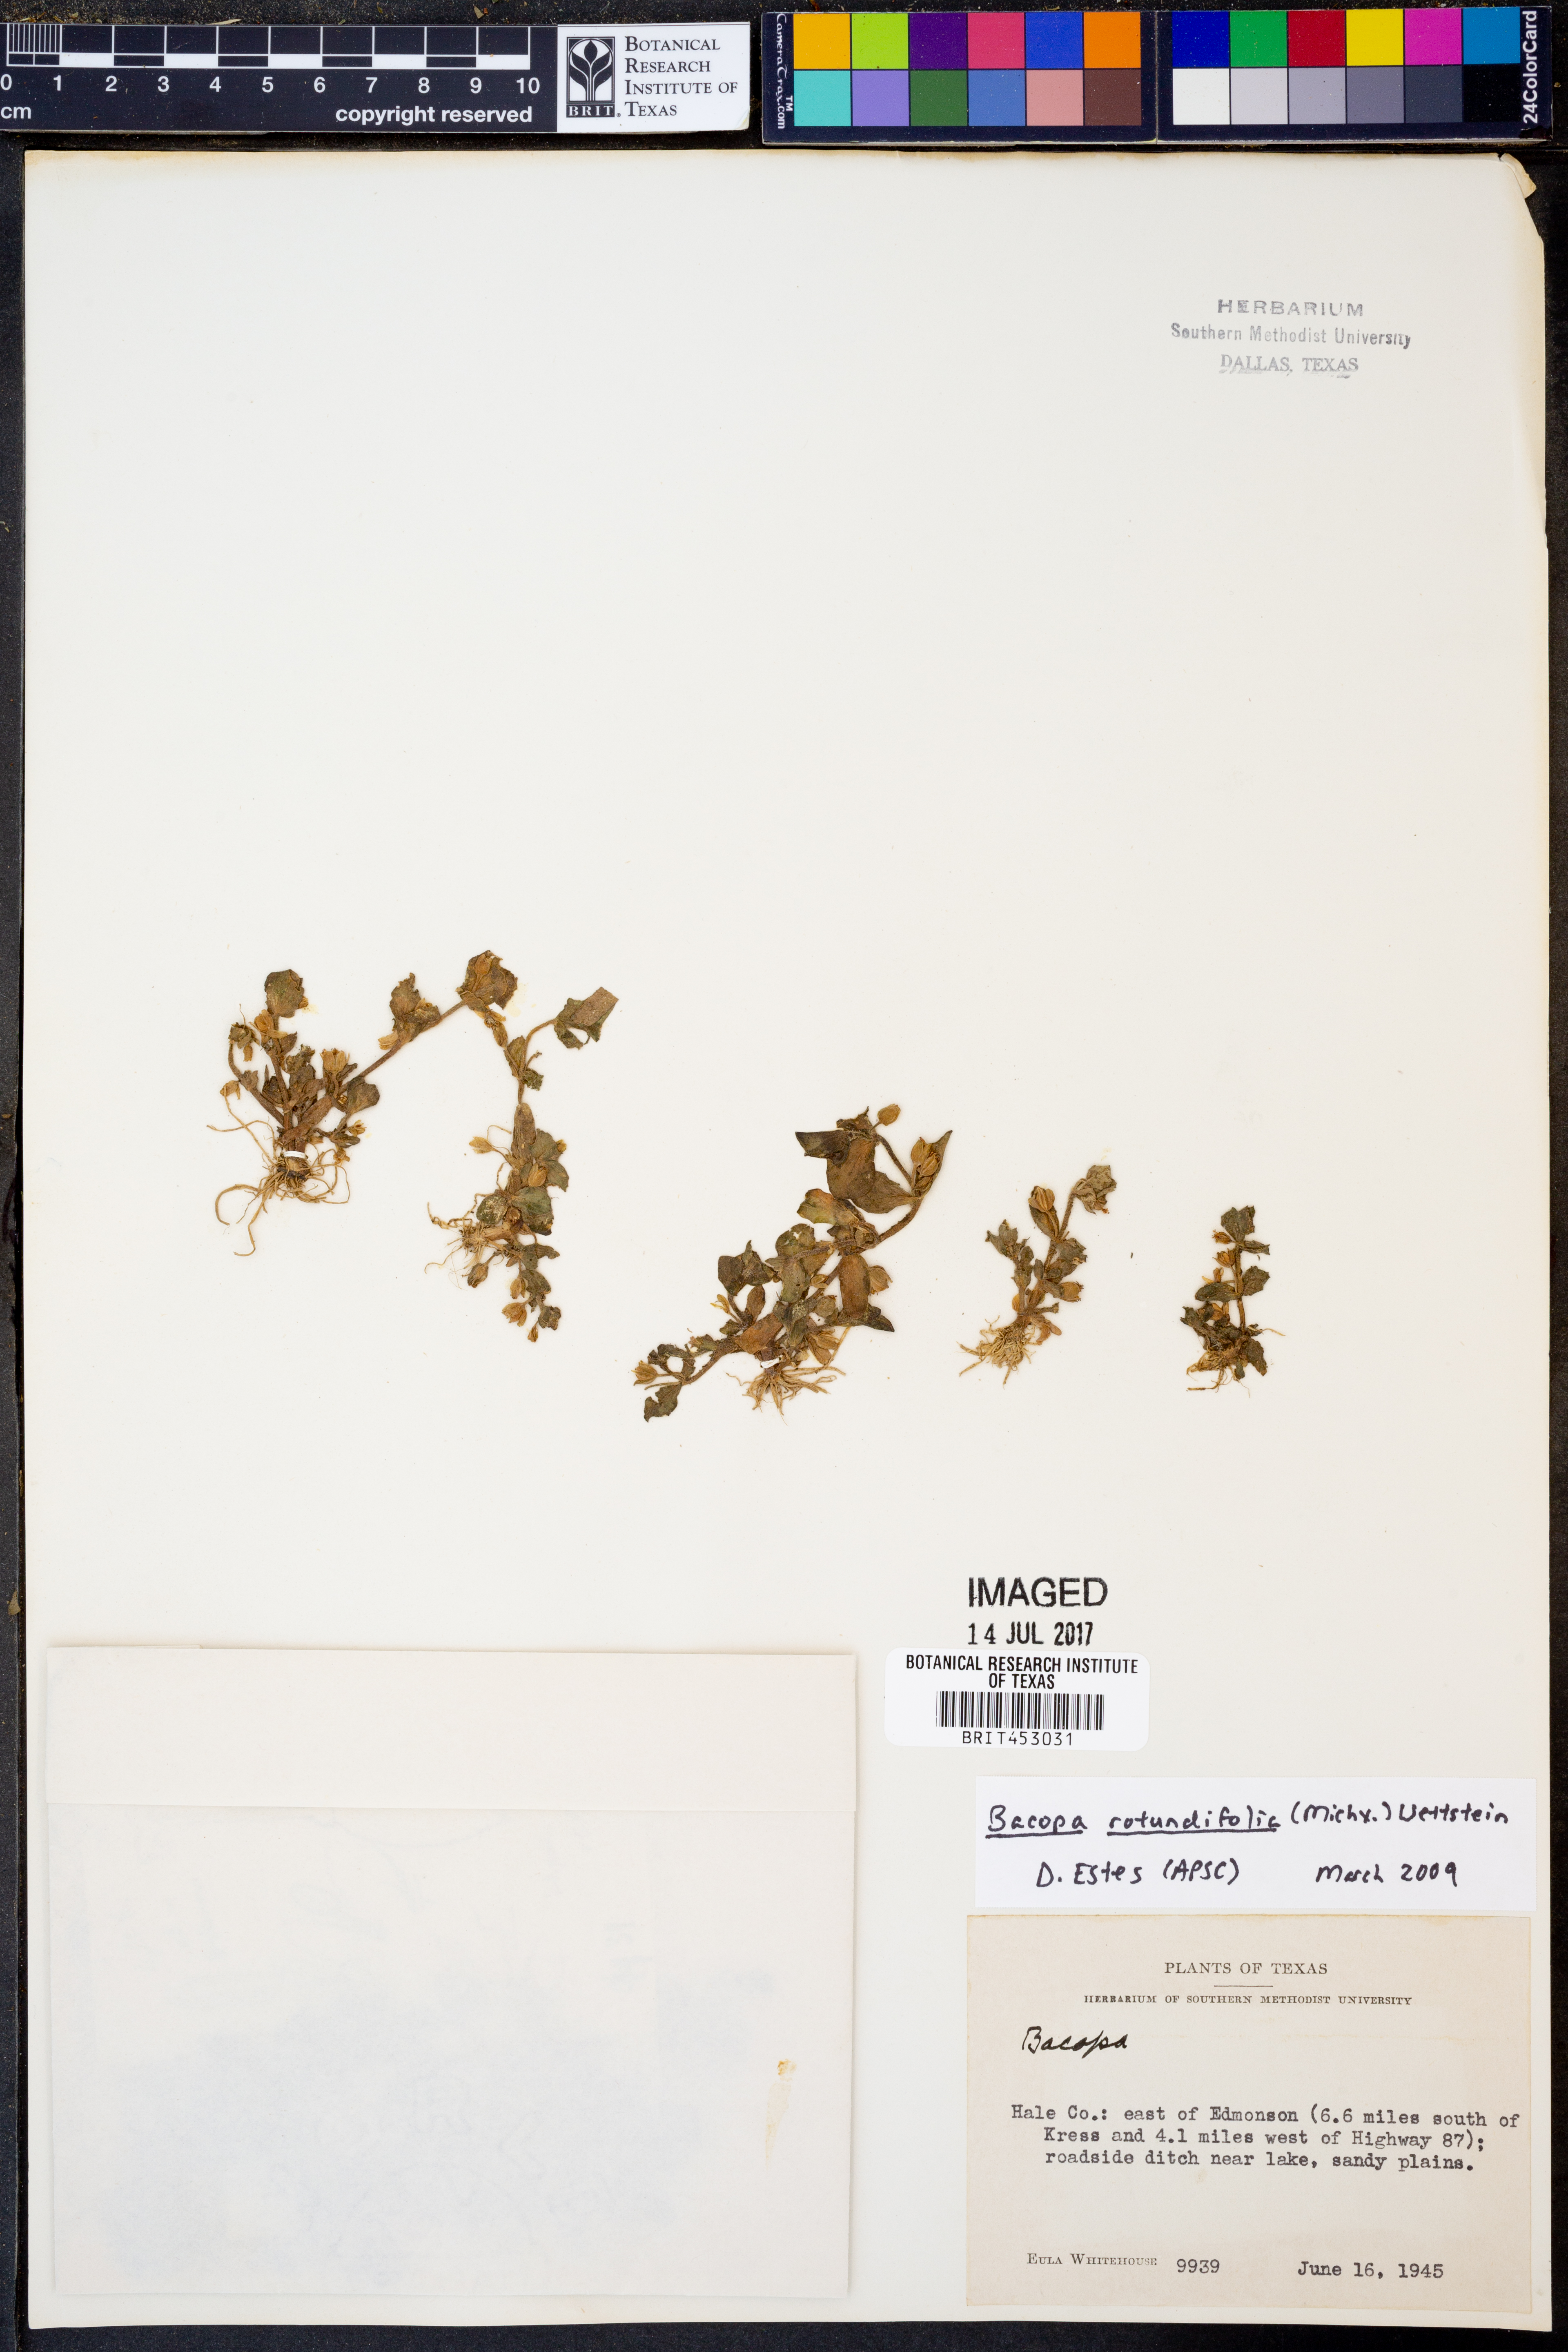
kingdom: Plantae
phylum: Tracheophyta
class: Magnoliopsida
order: Lamiales
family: Plantaginaceae
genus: Bacopa
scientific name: Bacopa rotundifolia
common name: Disc water hyssop
